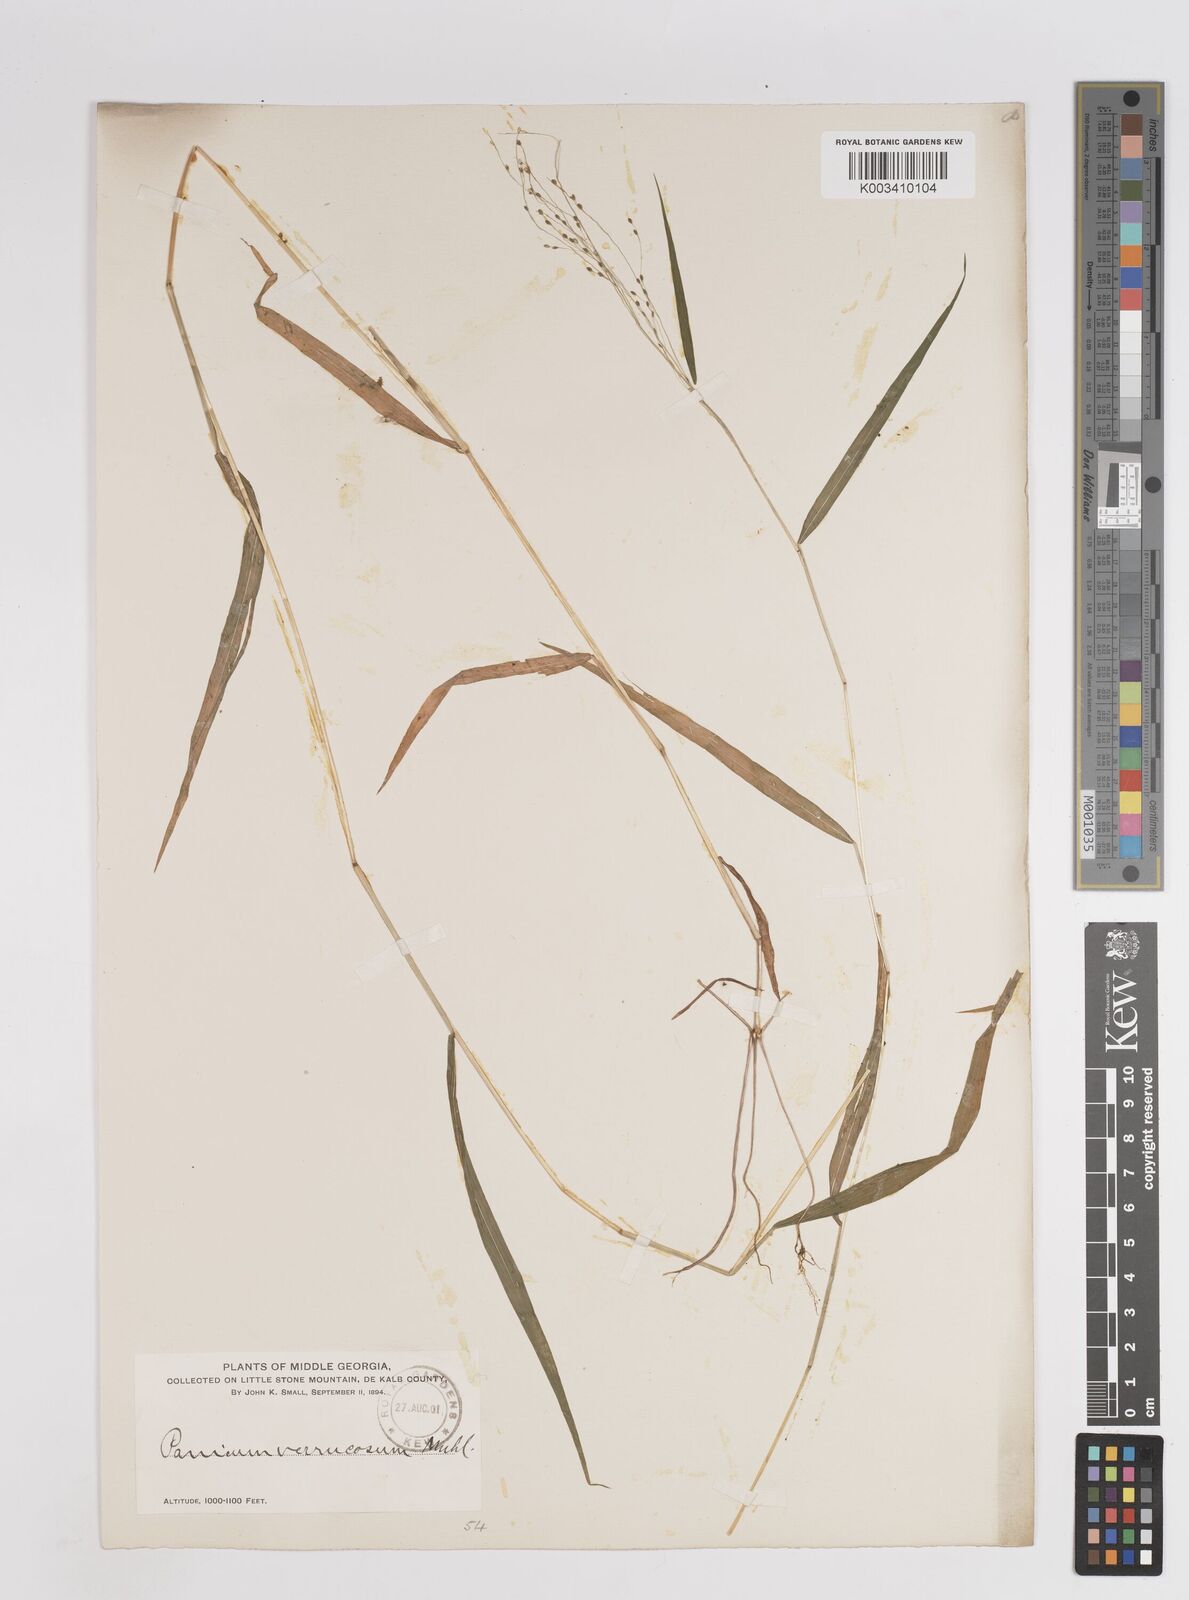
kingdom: Plantae
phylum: Tracheophyta
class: Liliopsida
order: Poales
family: Poaceae
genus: Kellochloa
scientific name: Kellochloa verrucosa
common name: Warty panic grass
